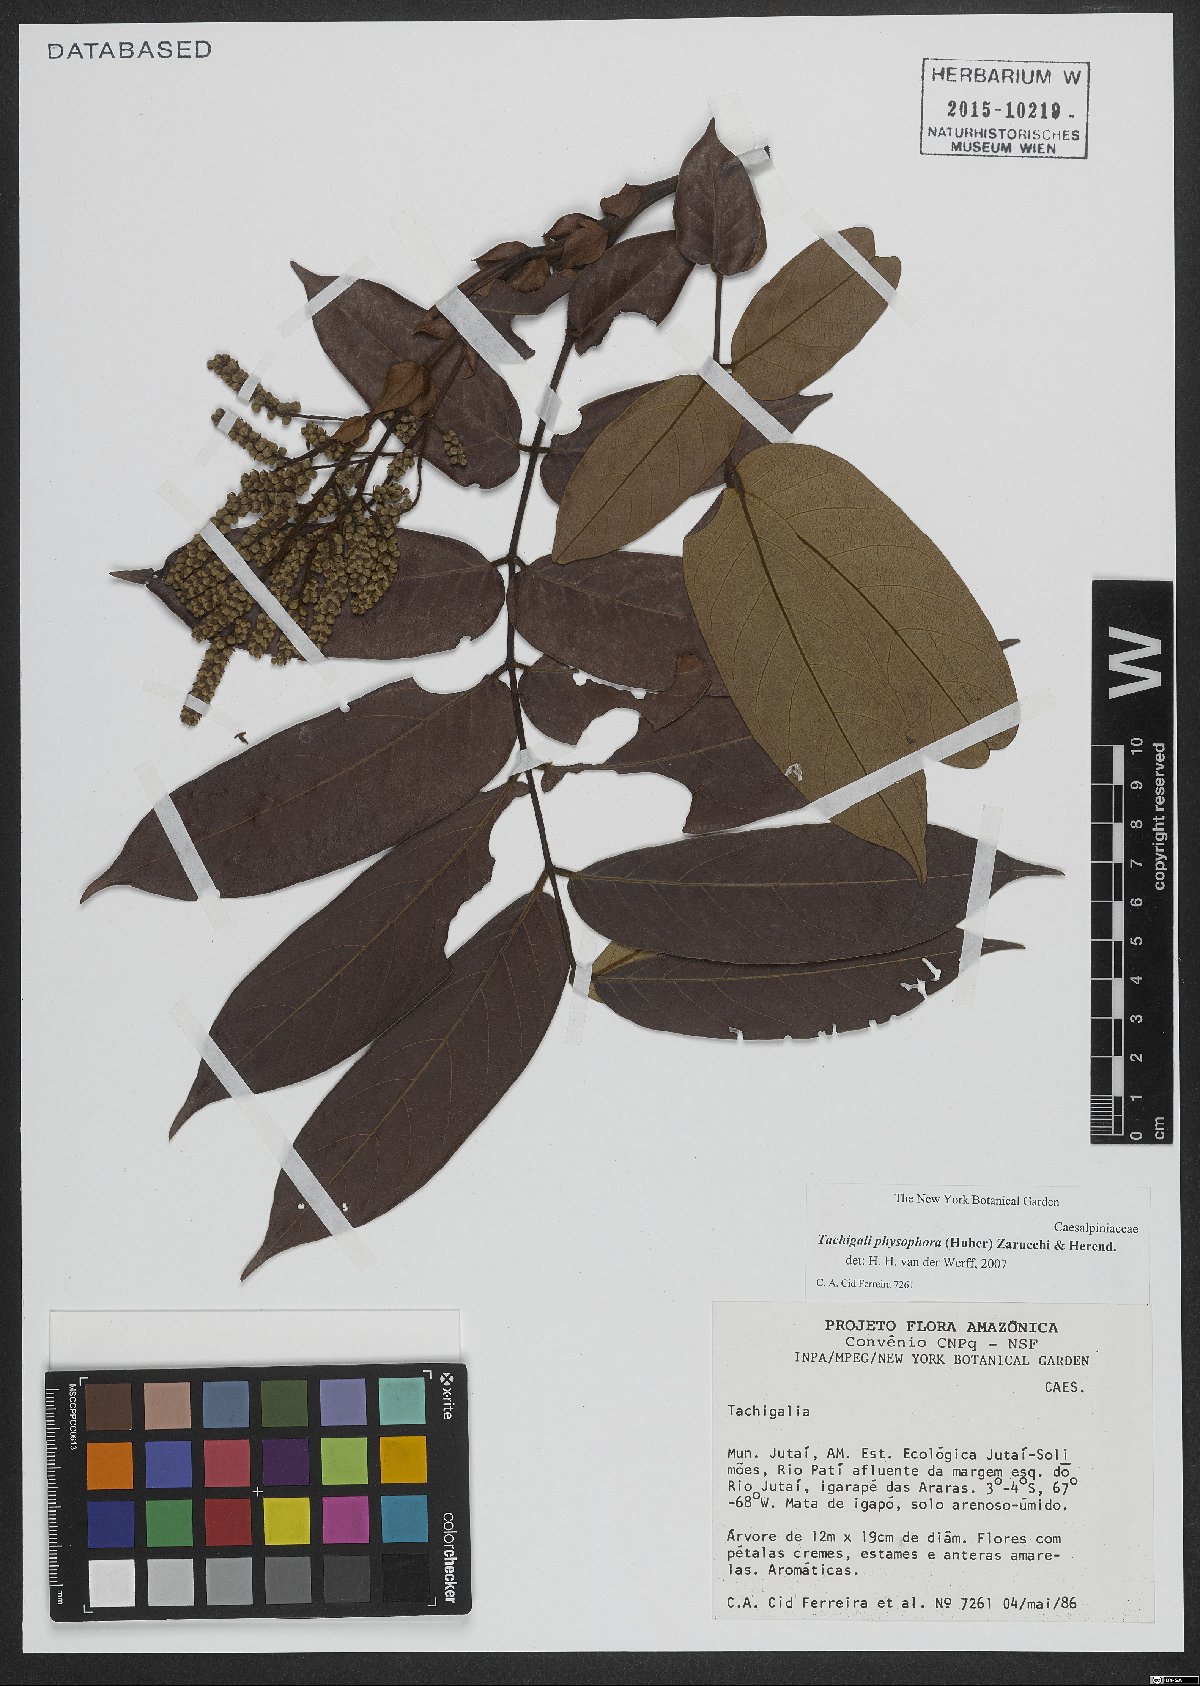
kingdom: Plantae
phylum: Tracheophyta
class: Magnoliopsida
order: Fabales
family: Fabaceae
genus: Tachigali
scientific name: Tachigali physophora
